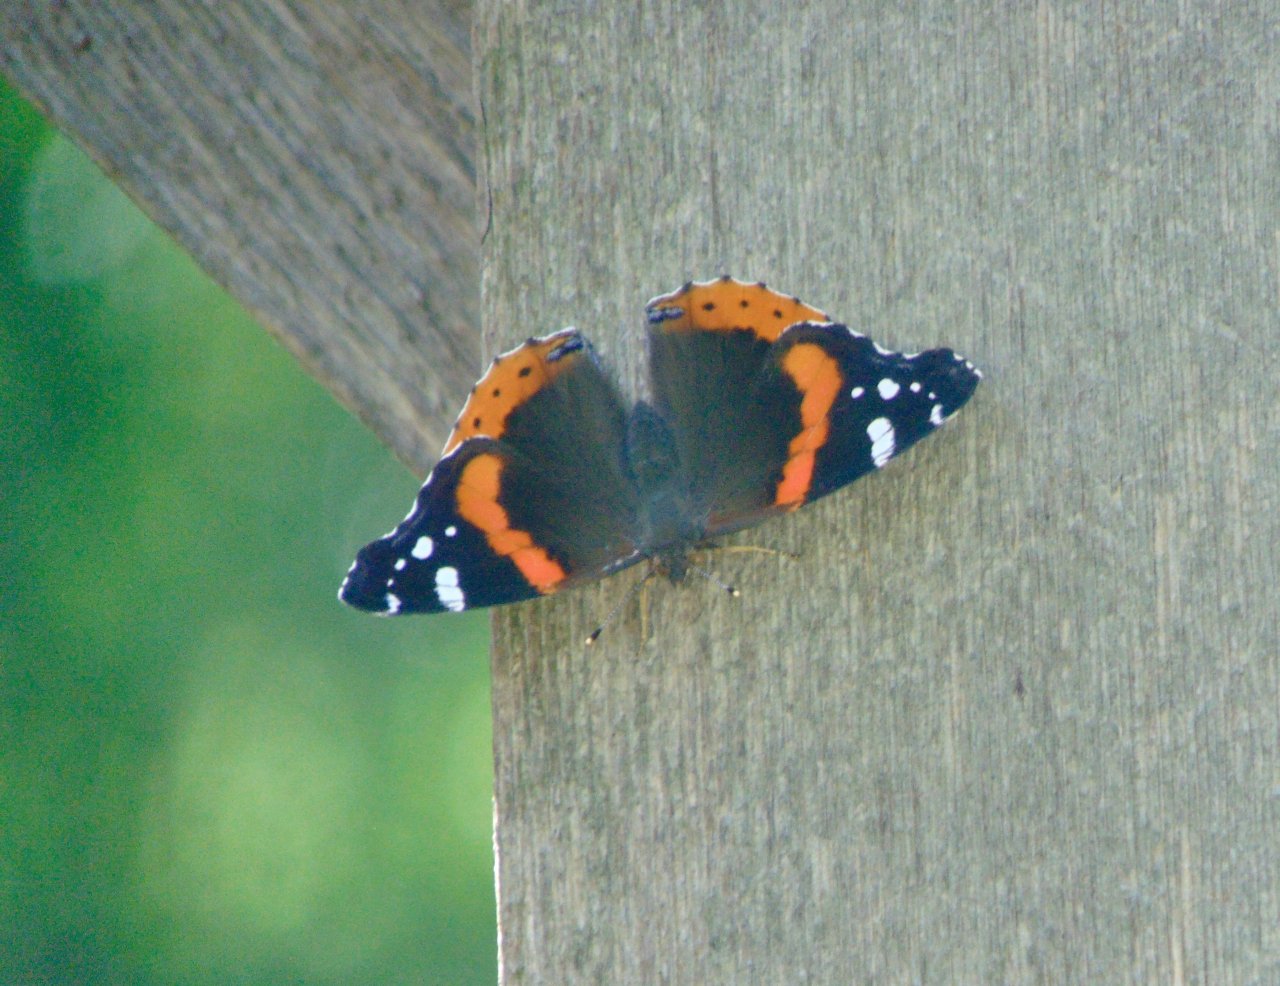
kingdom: Animalia
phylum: Arthropoda
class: Insecta
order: Lepidoptera
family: Nymphalidae
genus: Vanessa
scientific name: Vanessa atalanta
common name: Red Admiral
